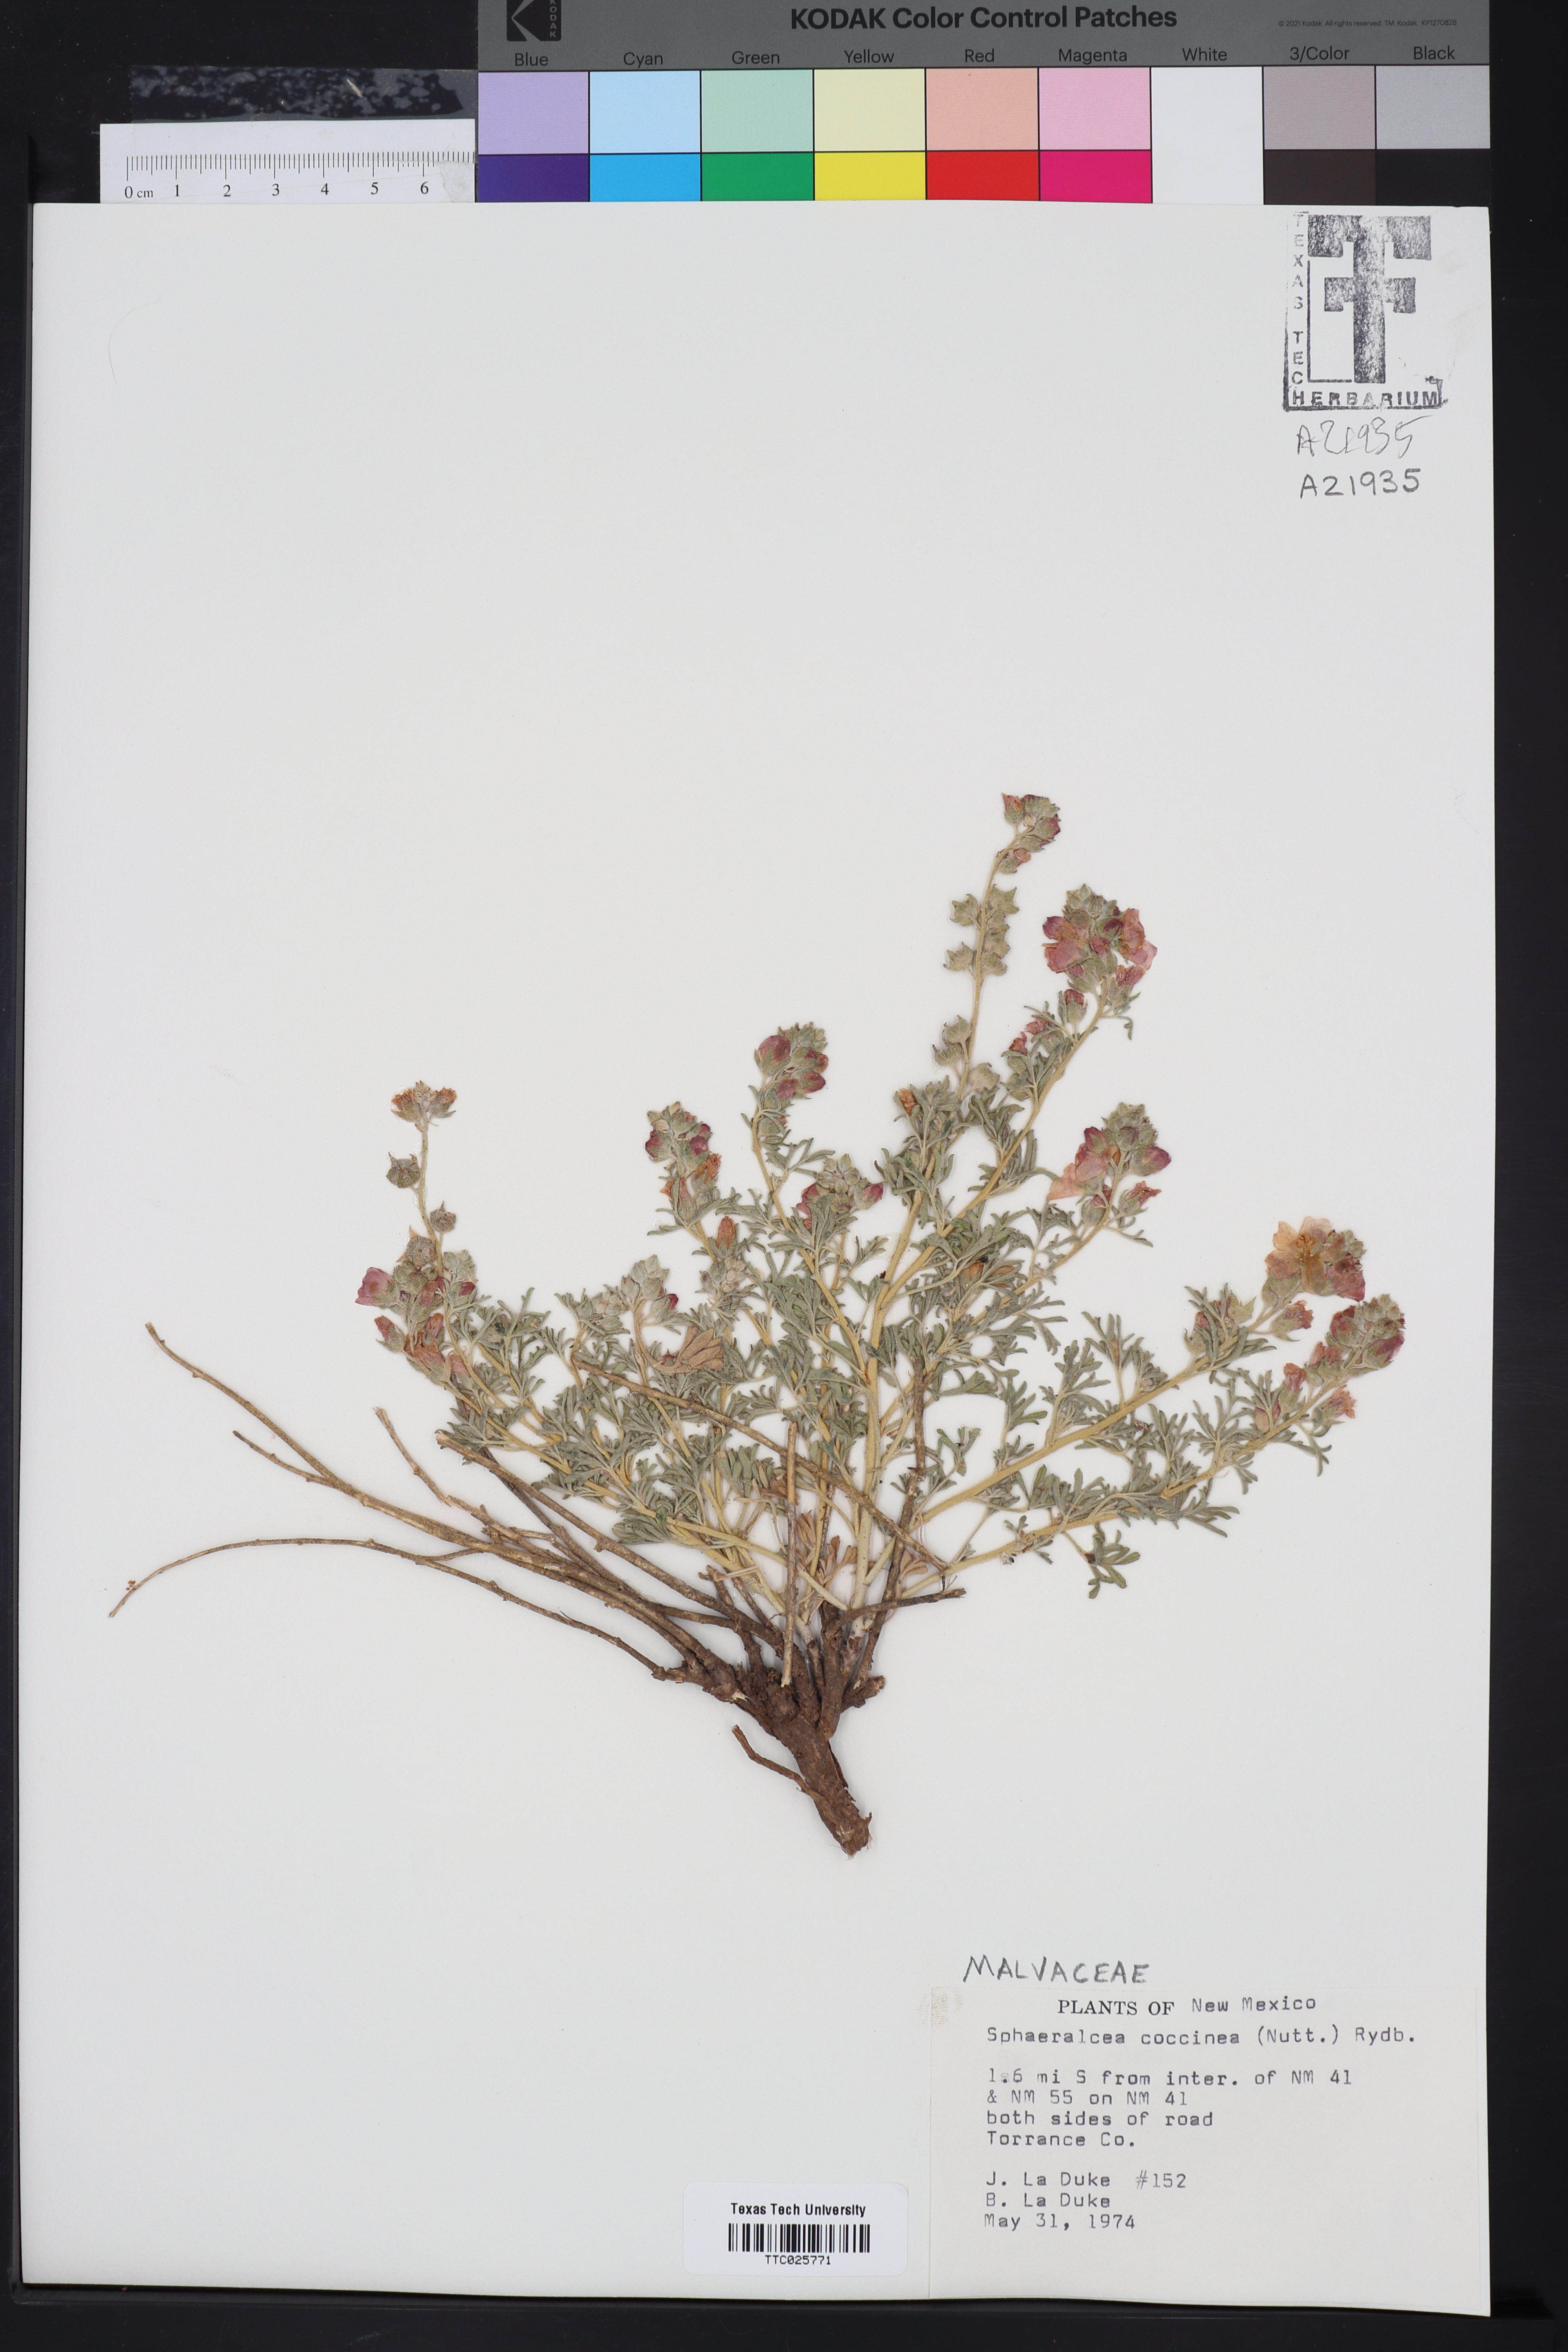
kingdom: Plantae
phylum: Tracheophyta
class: Magnoliopsida
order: Malvales
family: Malvaceae
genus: Sphaeralcea
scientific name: Sphaeralcea coccinea
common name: Moss-rose
